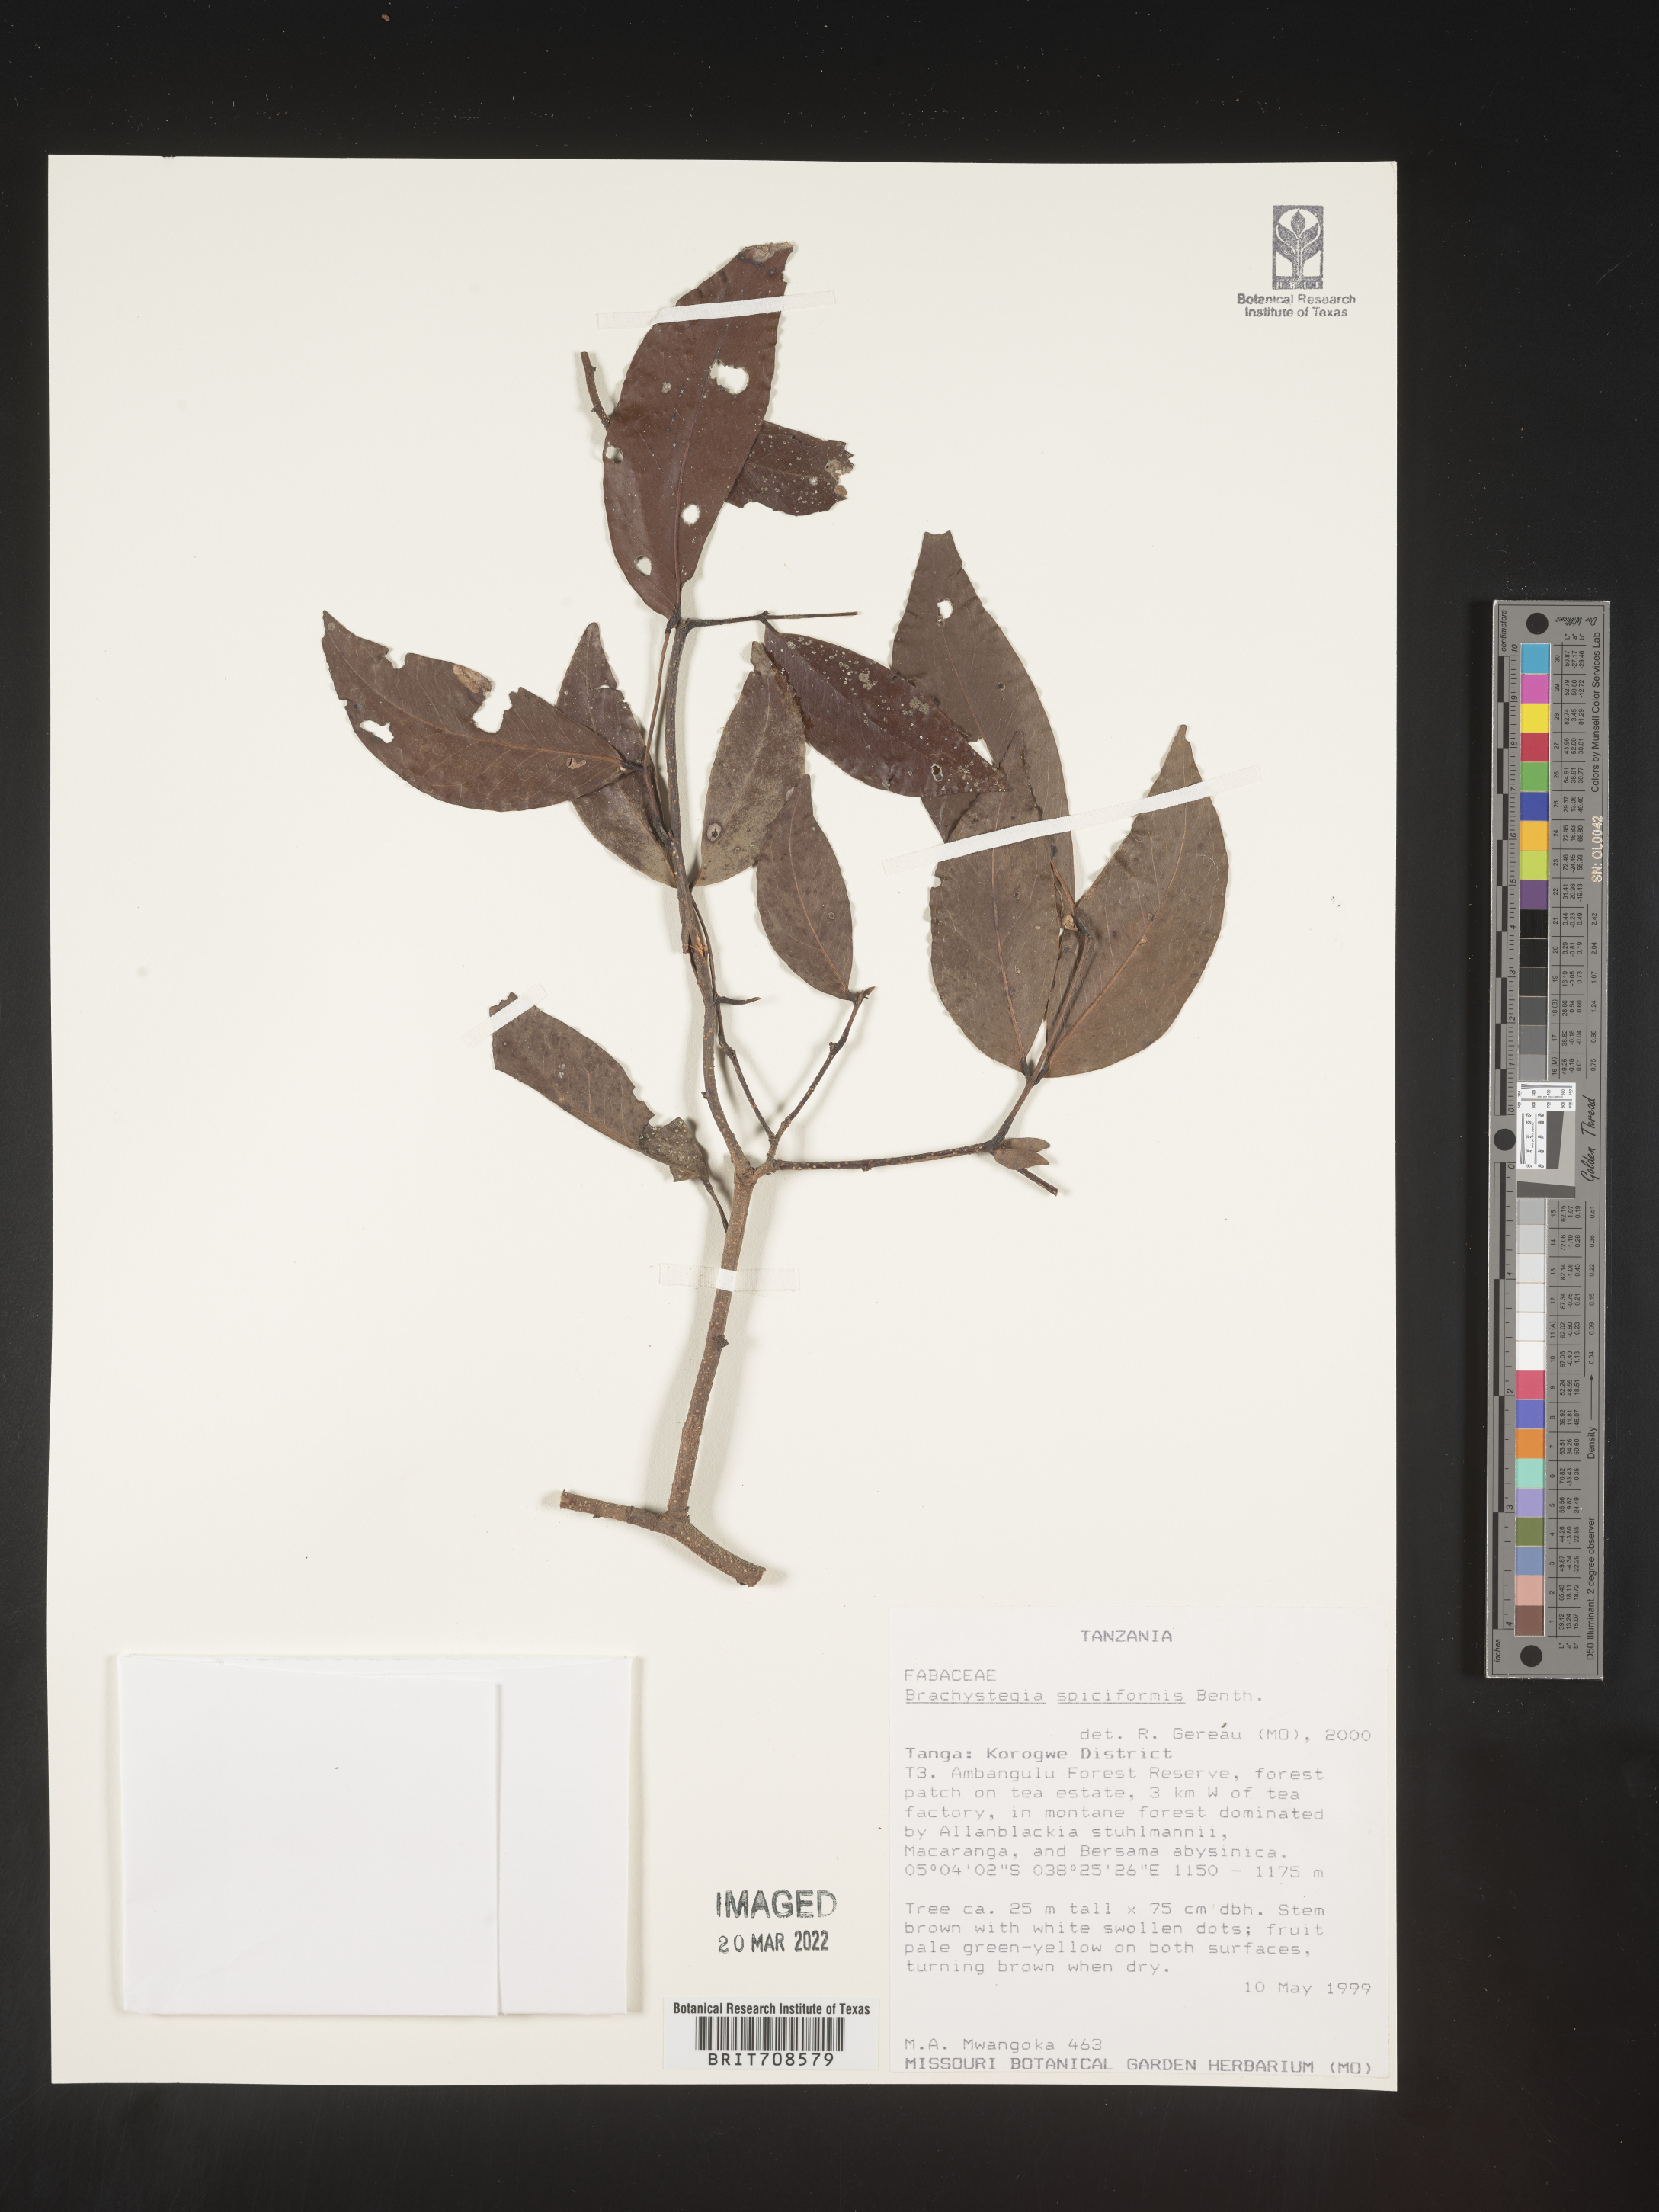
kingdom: Plantae
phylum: Tracheophyta
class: Magnoliopsida
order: Fabales
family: Fabaceae
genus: Brachystegia
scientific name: Brachystegia
